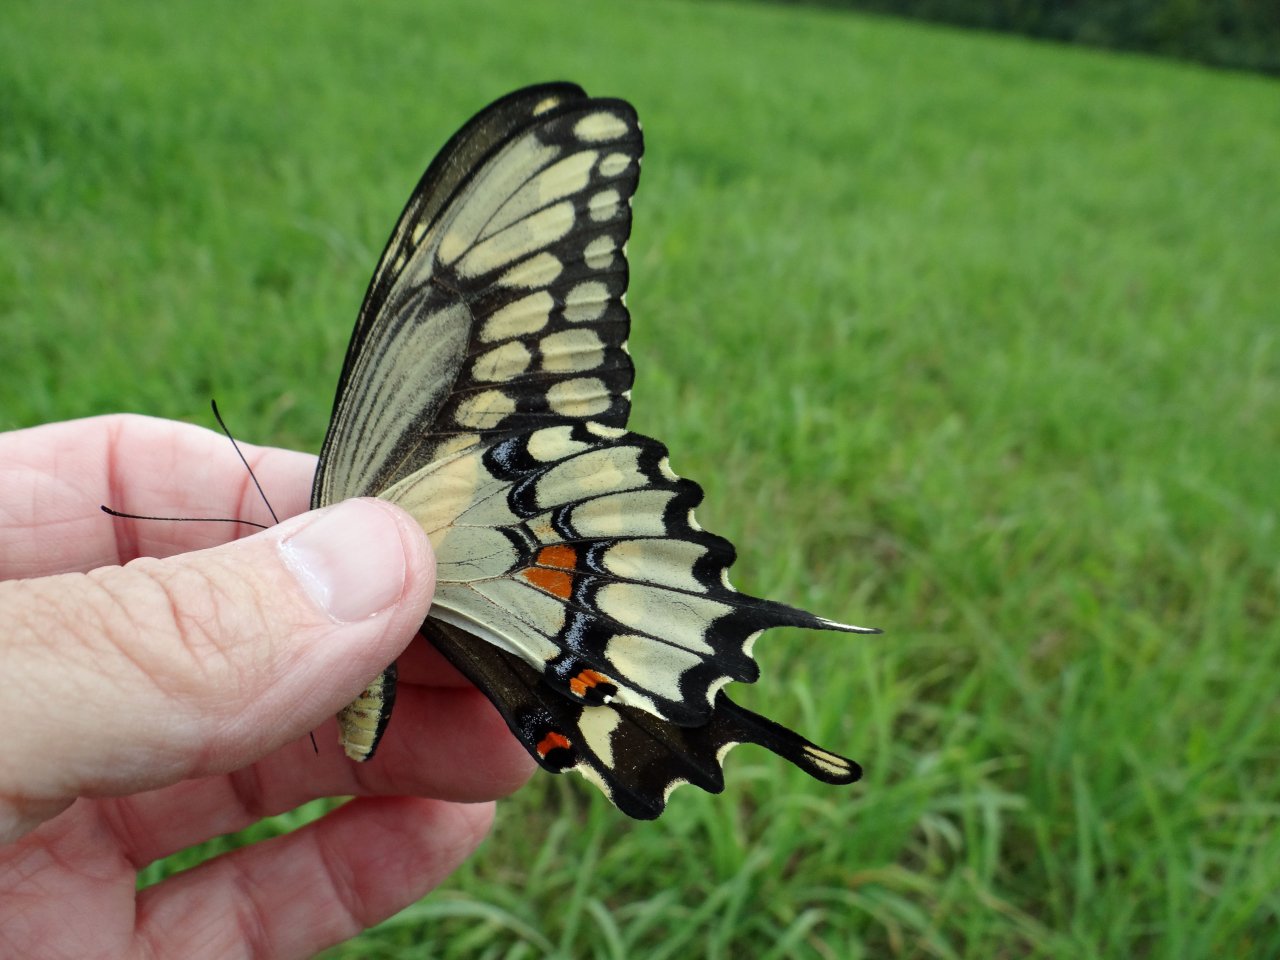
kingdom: Animalia
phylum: Arthropoda
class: Insecta
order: Lepidoptera
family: Papilionidae
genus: Papilio
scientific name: Papilio cresphontes
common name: Eastern Giant Swallowtail
